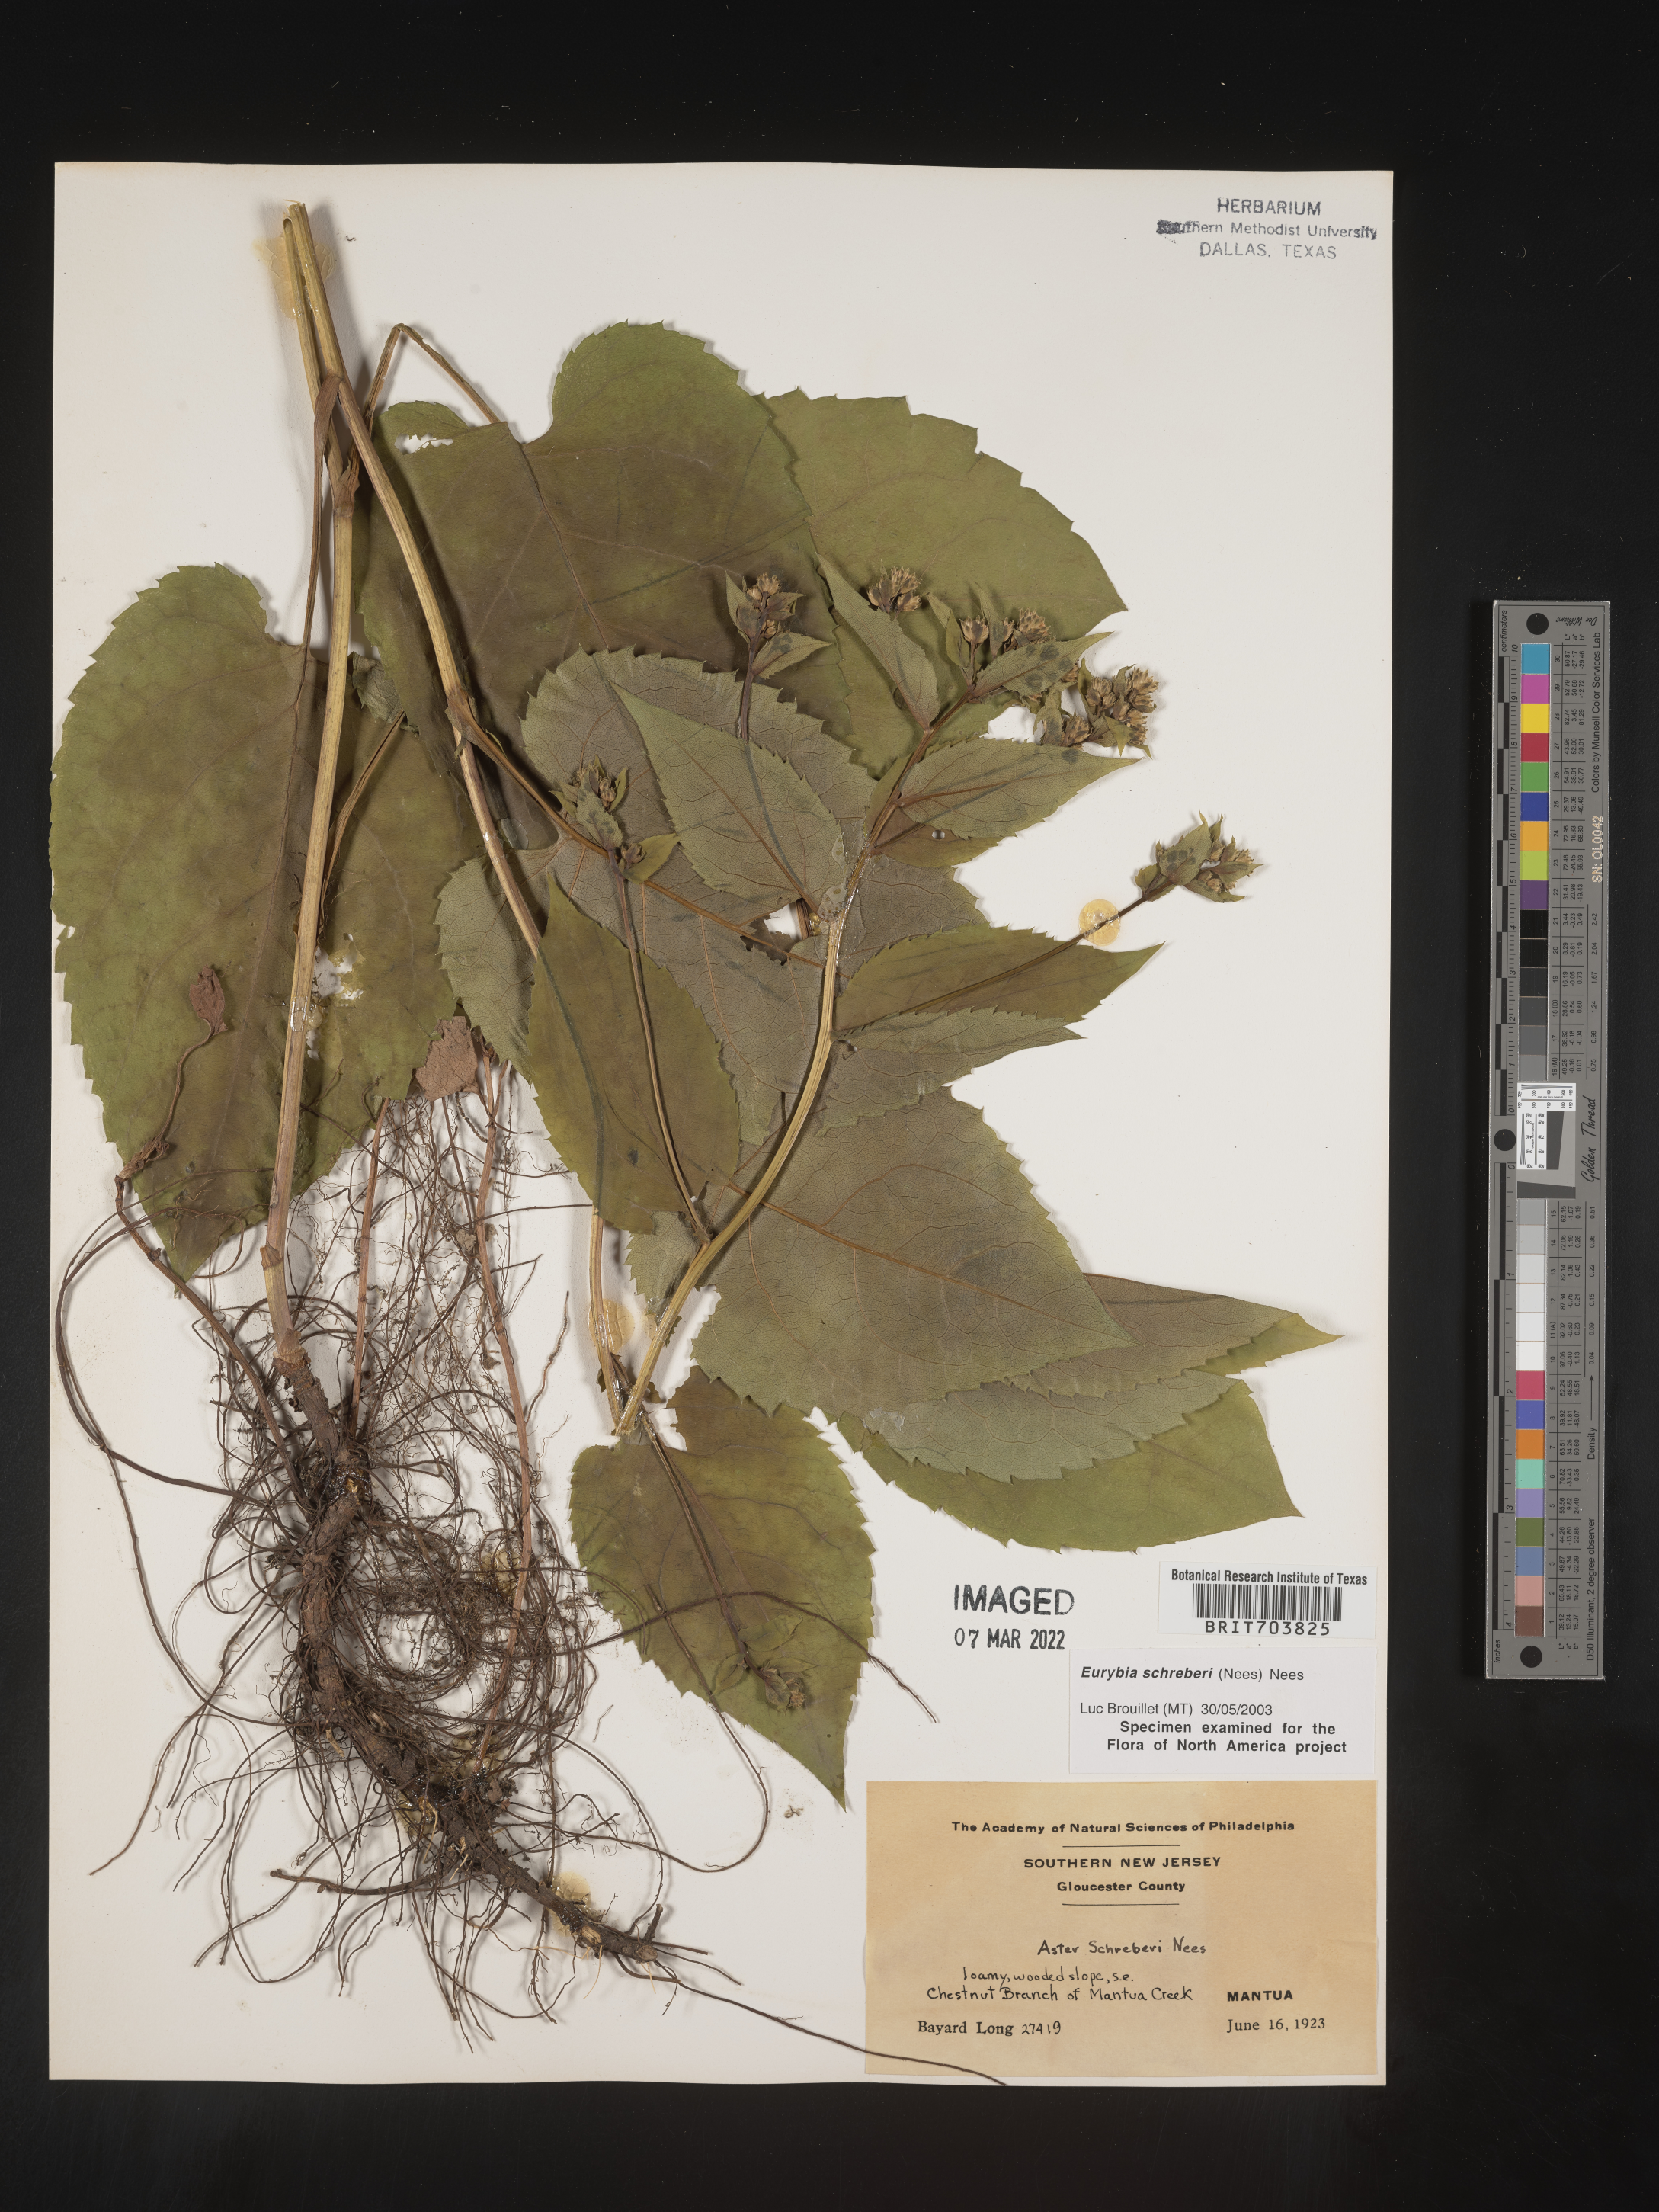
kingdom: Plantae
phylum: Tracheophyta
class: Magnoliopsida
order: Asterales
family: Asteraceae
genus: Eurybia
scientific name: Eurybia schreberi
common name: Schreber's aster
